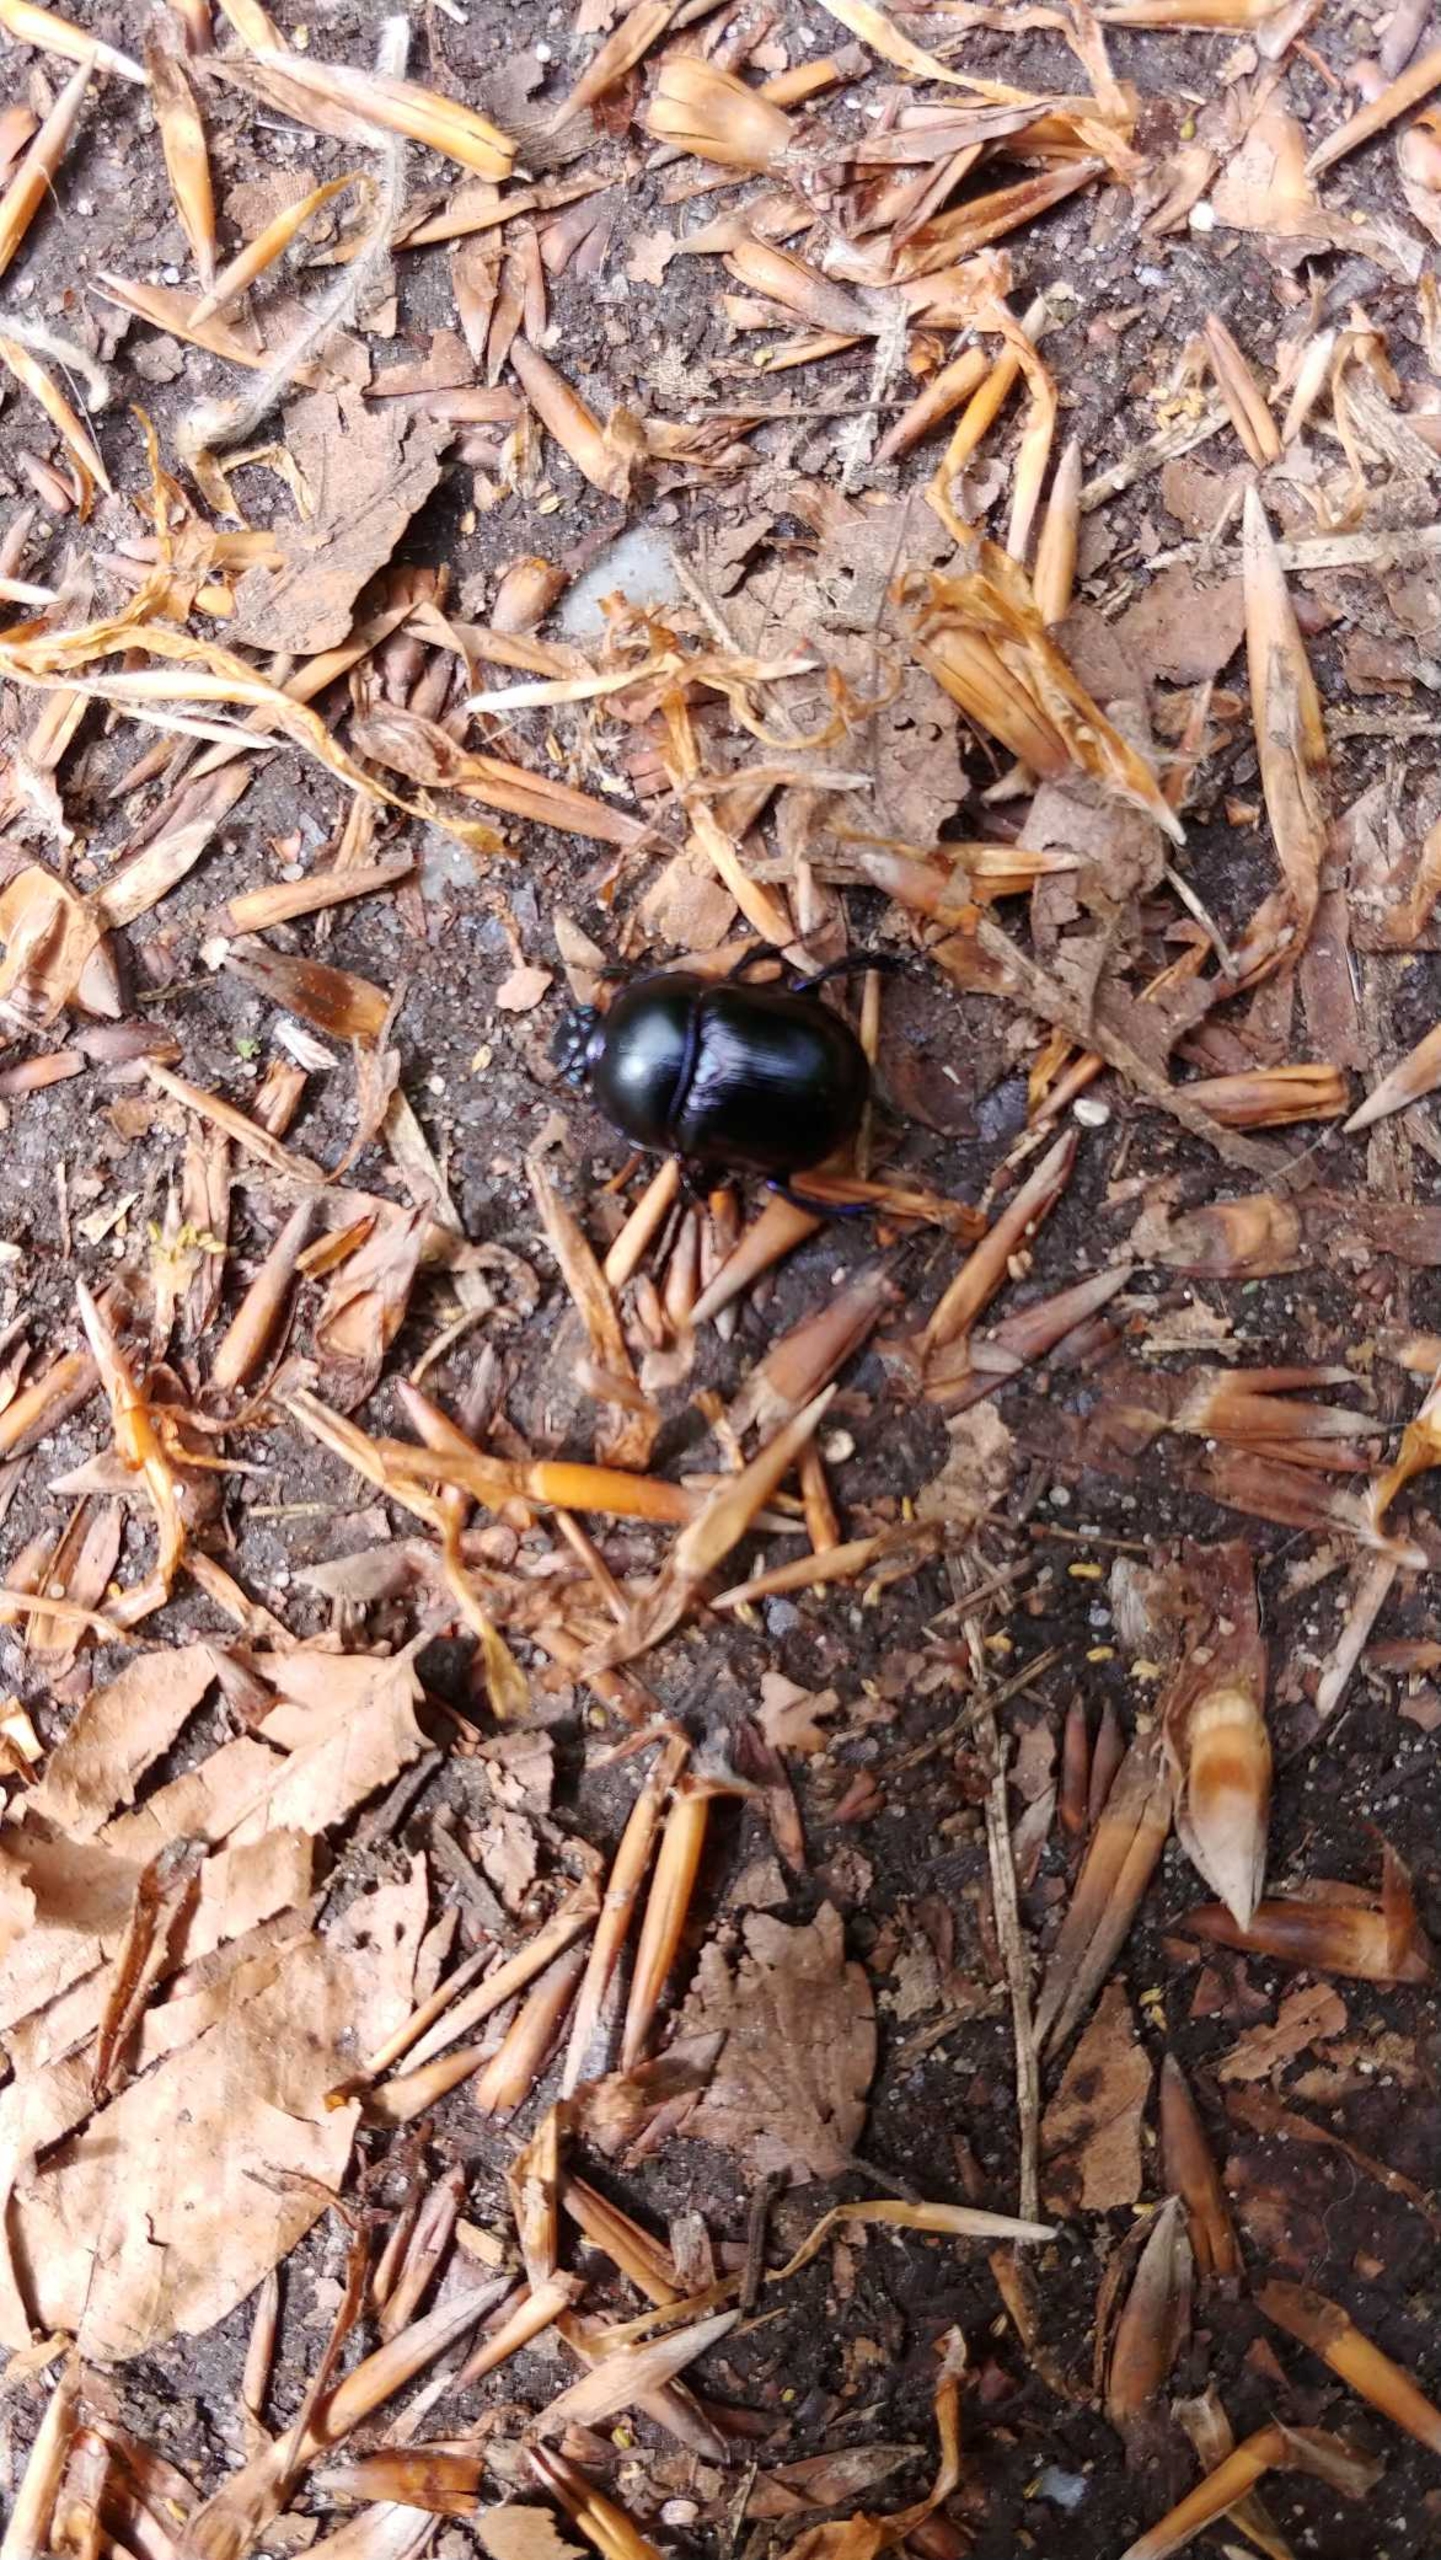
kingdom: Animalia
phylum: Arthropoda
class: Insecta
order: Coleoptera
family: Geotrupidae
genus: Anoplotrupes
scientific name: Anoplotrupes stercorosus
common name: Skovskarnbasse
